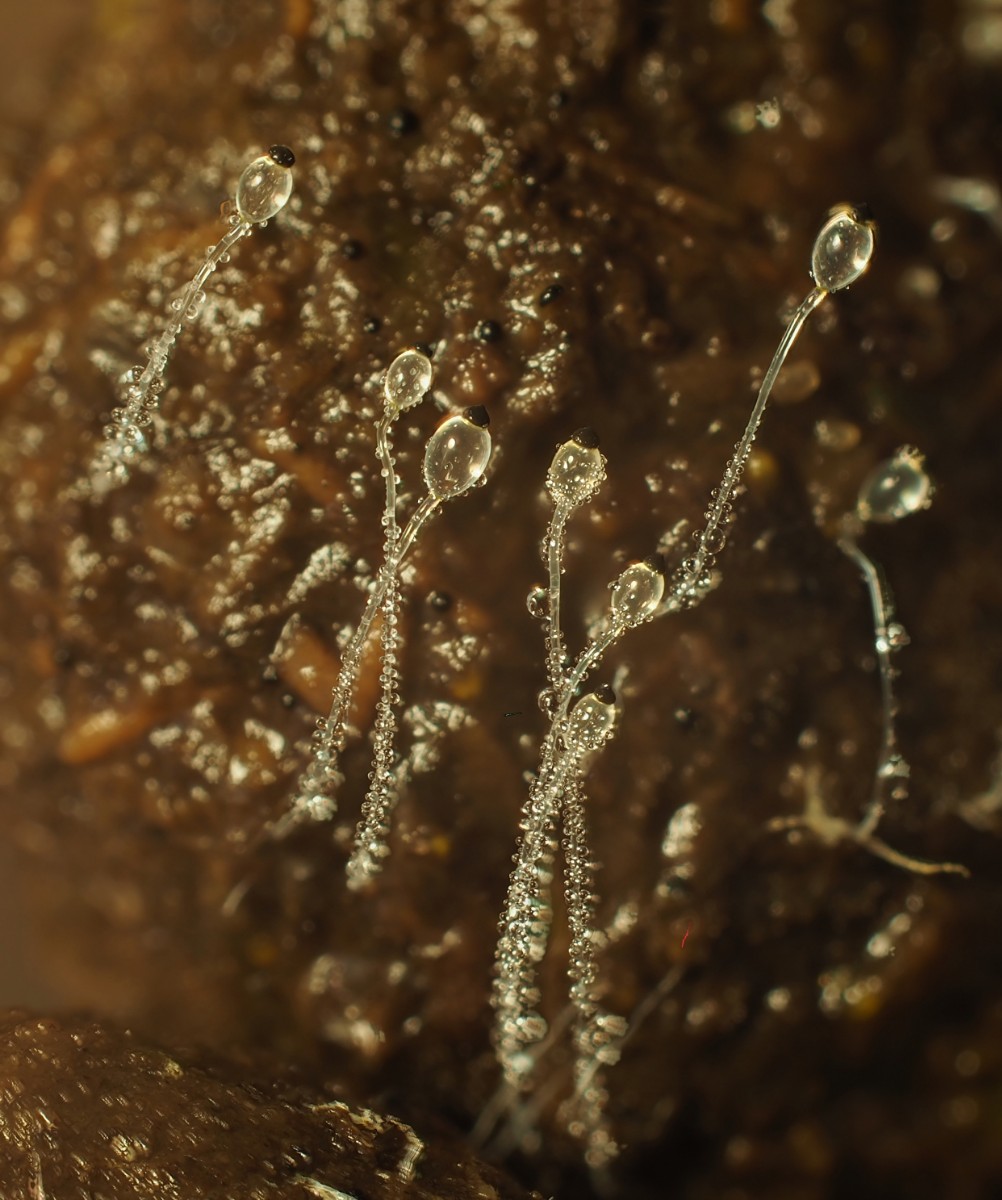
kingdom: Fungi
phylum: Mucoromycota
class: Mucoromycetes
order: Mucorales
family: Pilobolaceae
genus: Pilobolus
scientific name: Pilobolus umbonatus
